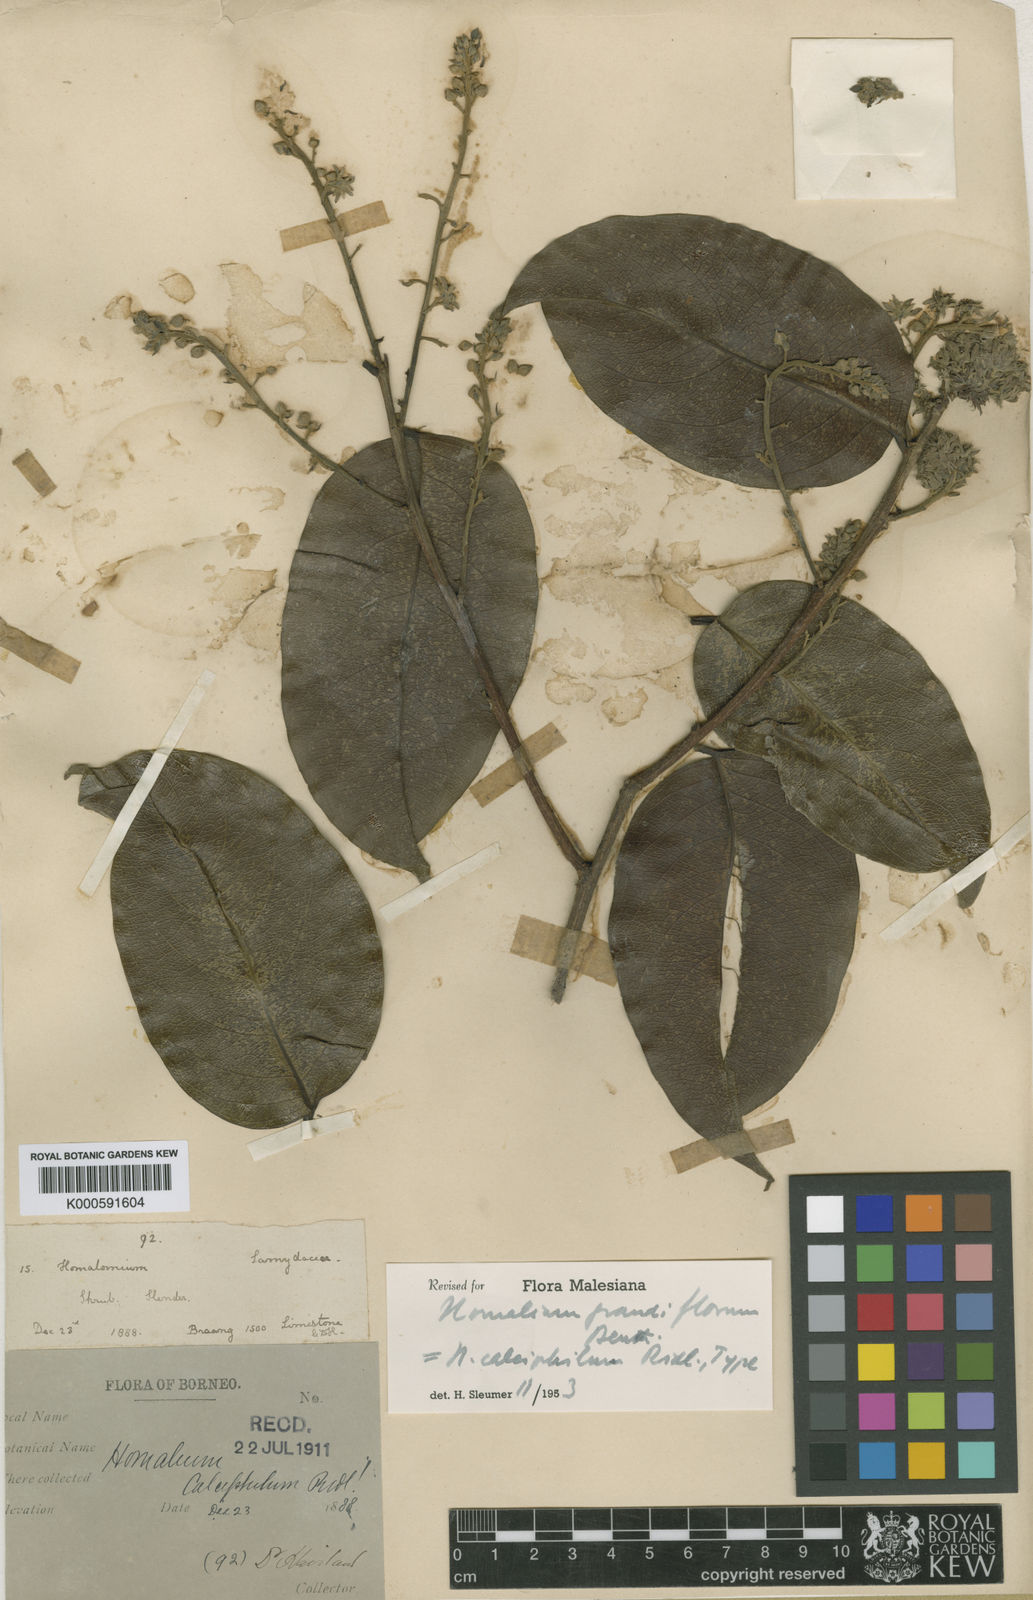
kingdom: Plantae
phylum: Tracheophyta
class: Magnoliopsida
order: Malpighiales
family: Salicaceae
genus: Homalium
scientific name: Homalium grandiflorum
